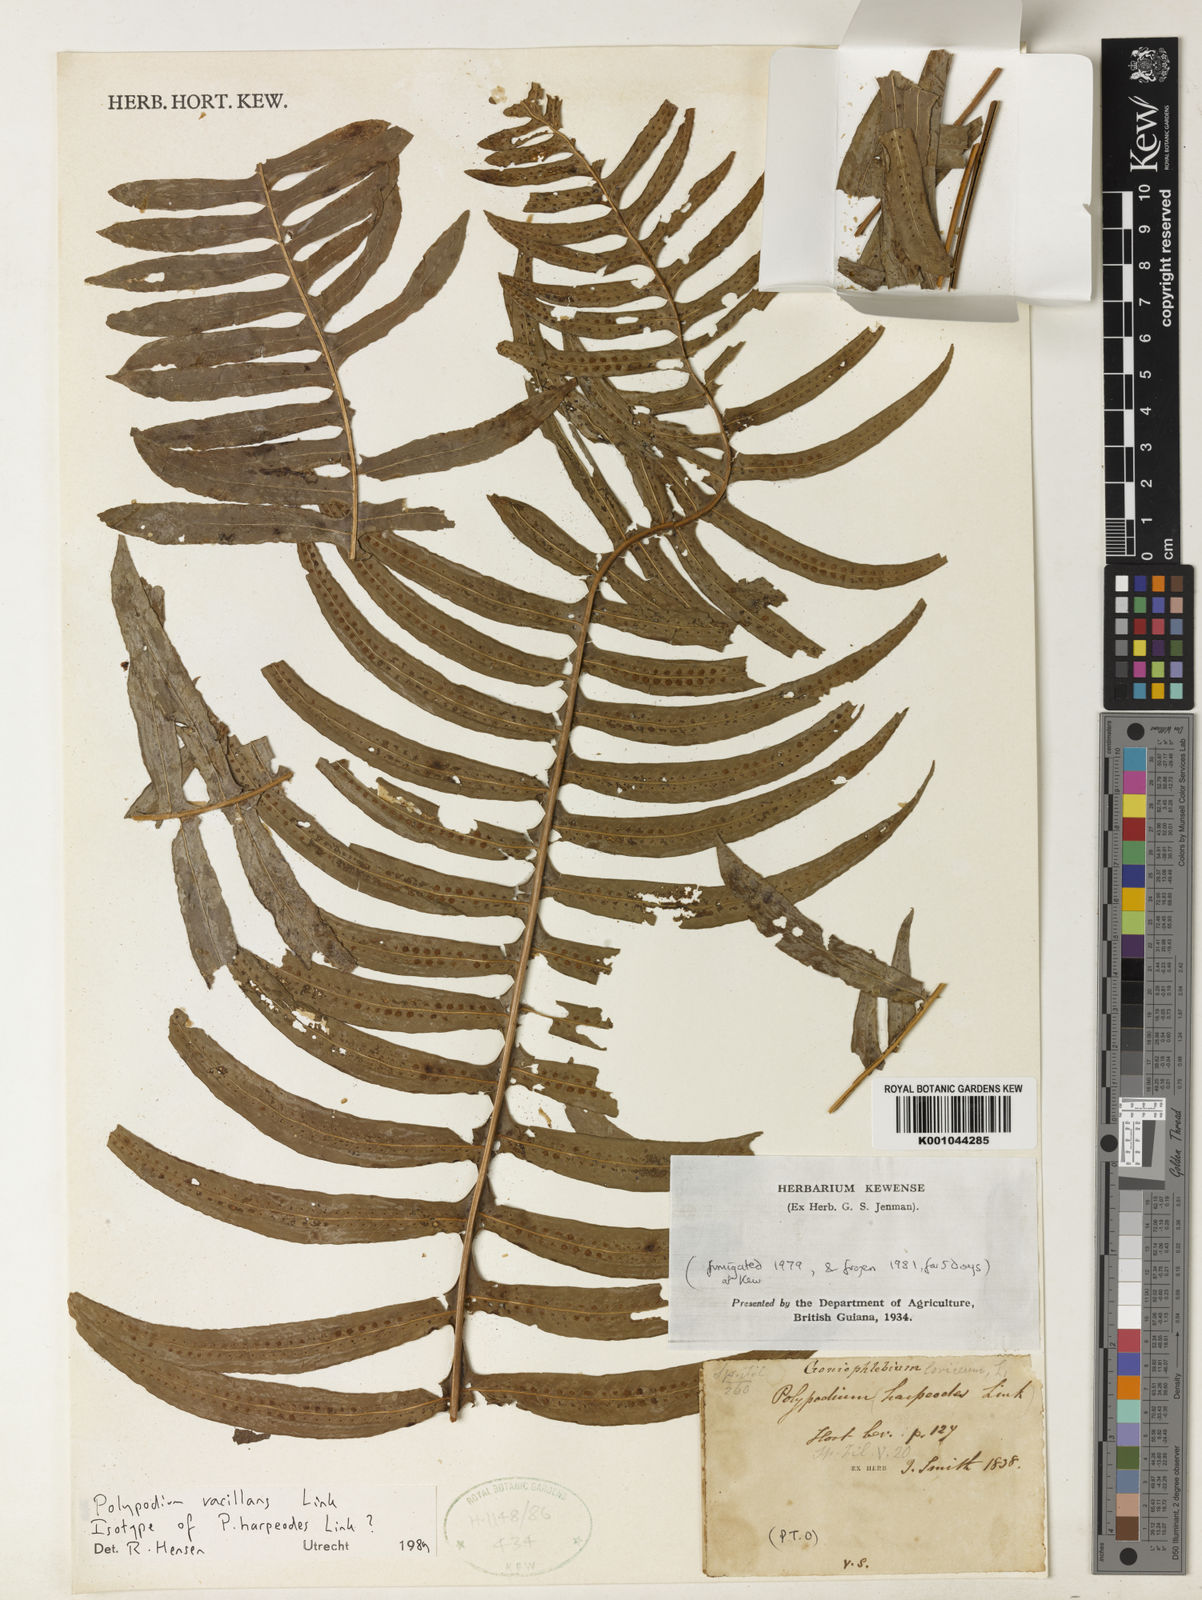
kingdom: Plantae
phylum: Tracheophyta
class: Polypodiopsida
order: Polypodiales
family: Polypodiaceae
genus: Serpocaulon
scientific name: Serpocaulon vacillans
